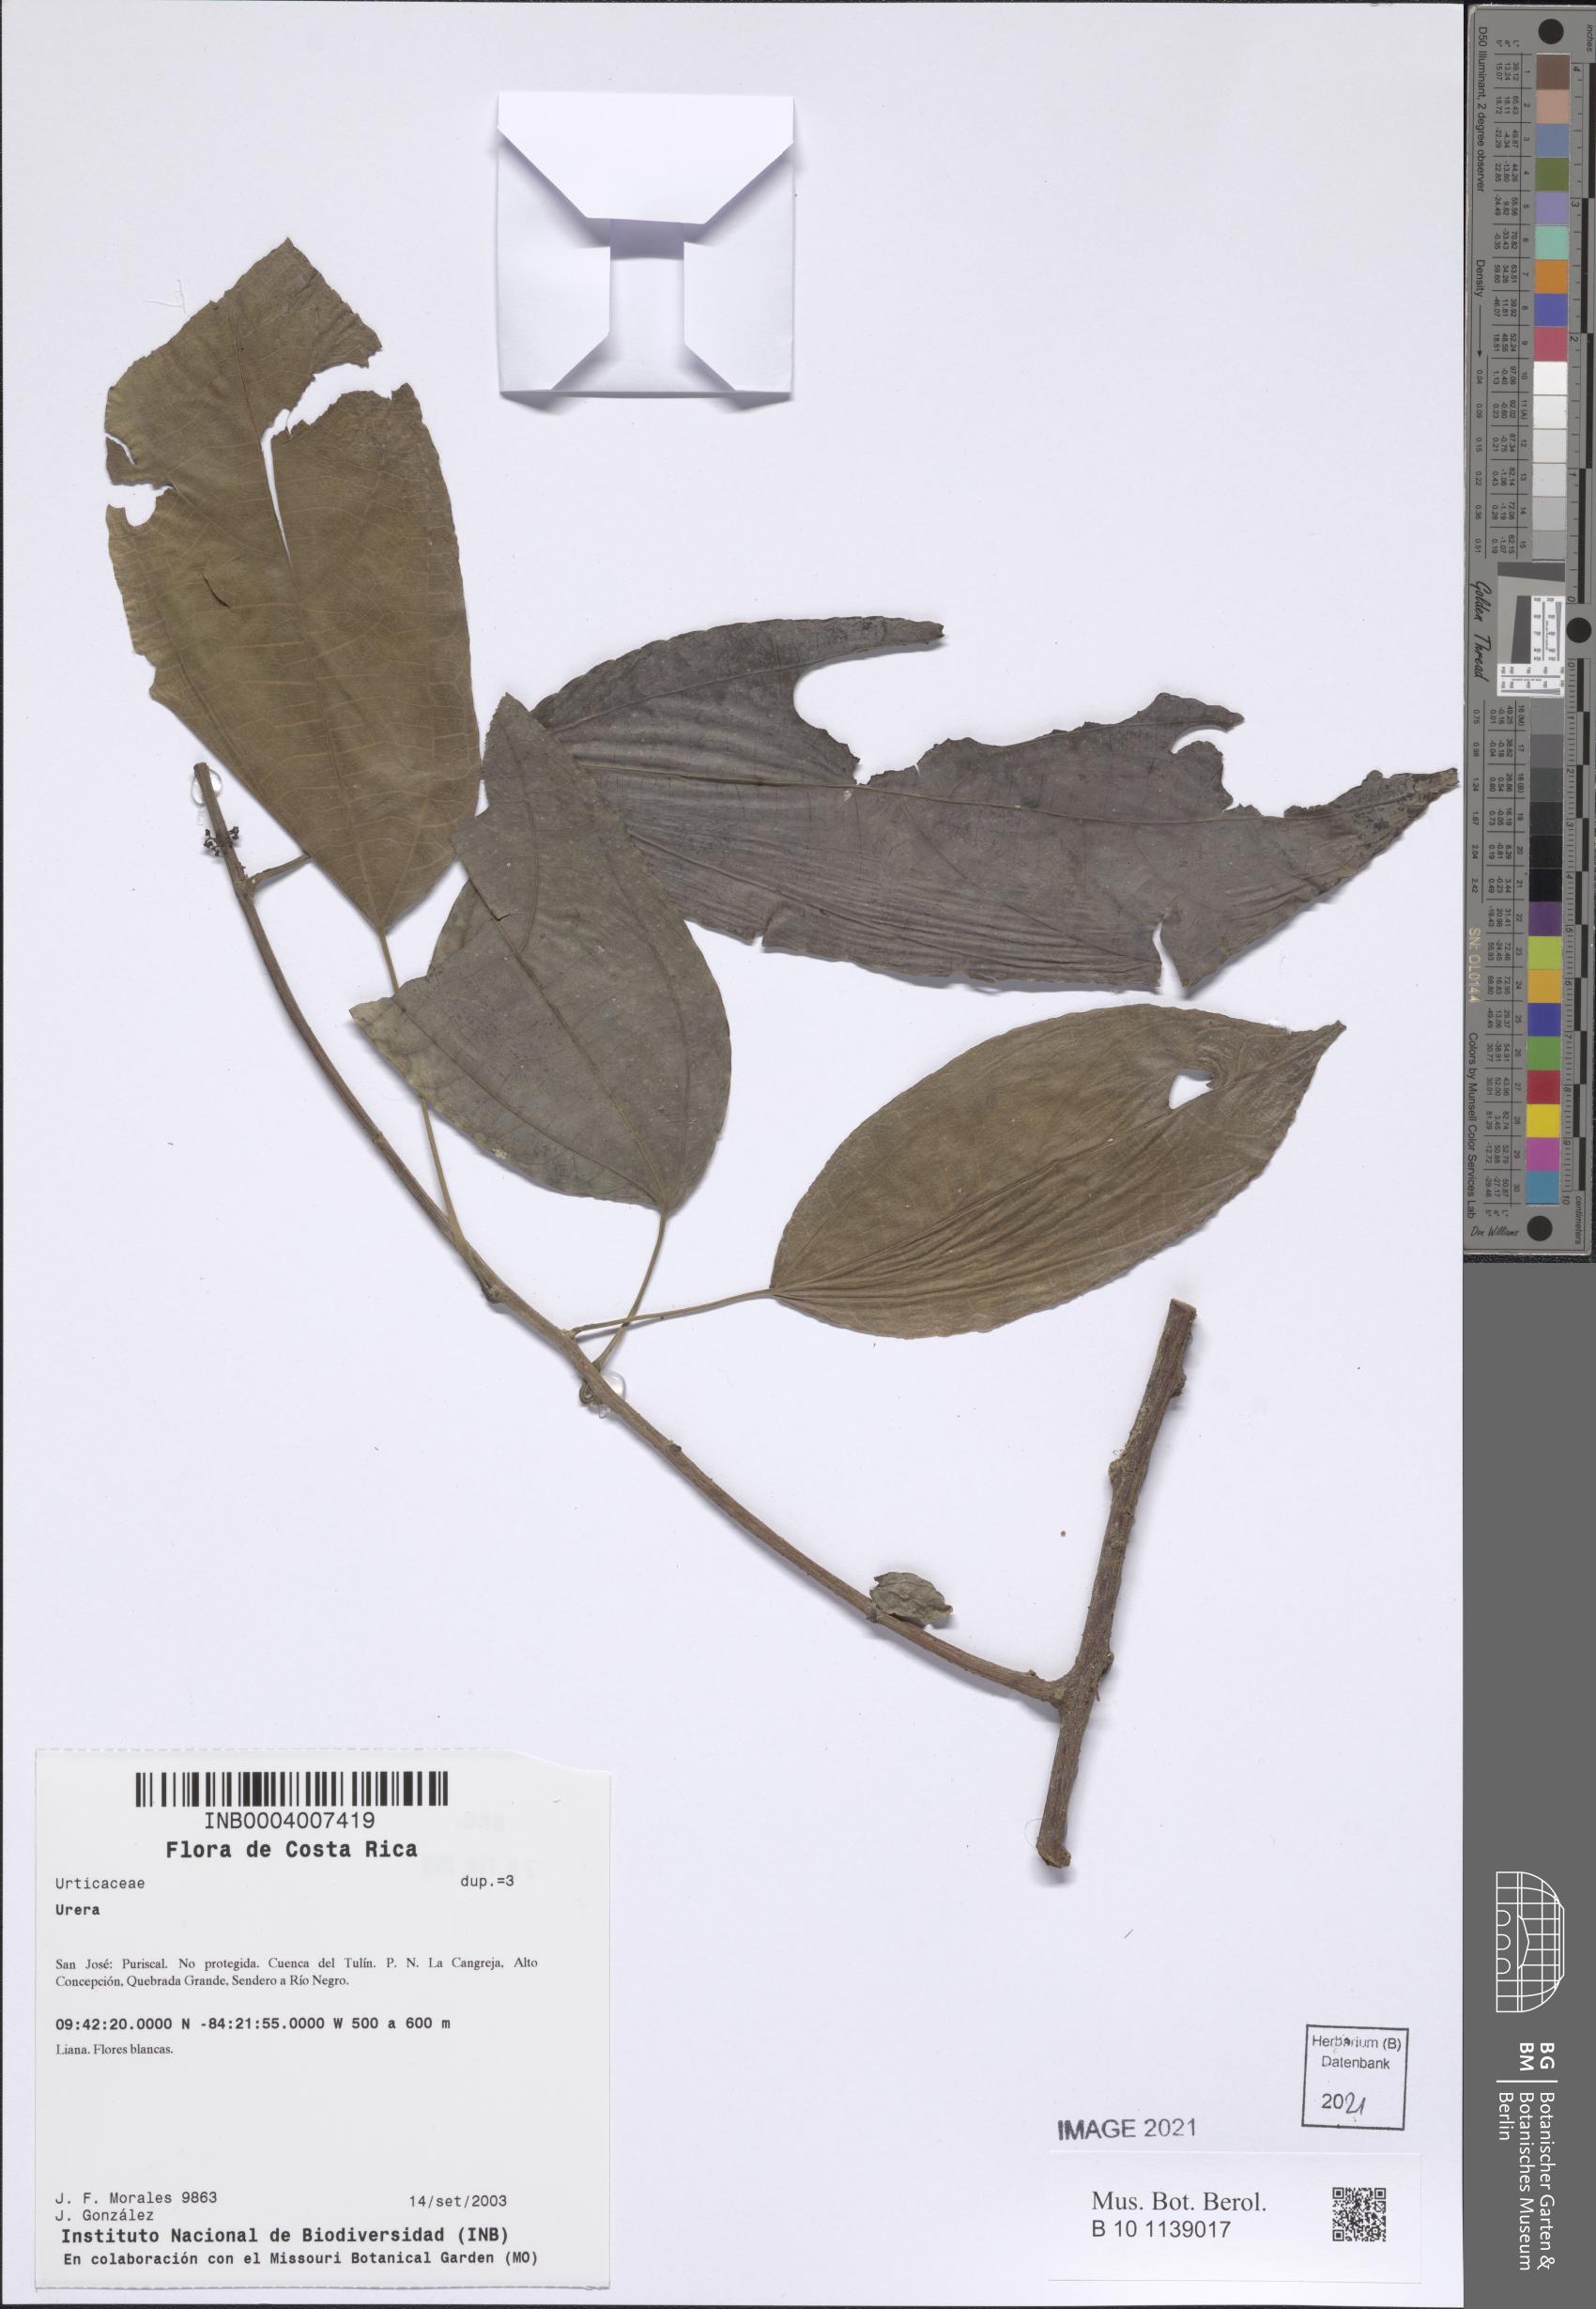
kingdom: Plantae
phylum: Tracheophyta
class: Magnoliopsida
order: Rosales
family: Urticaceae
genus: Urera
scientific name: Urera
